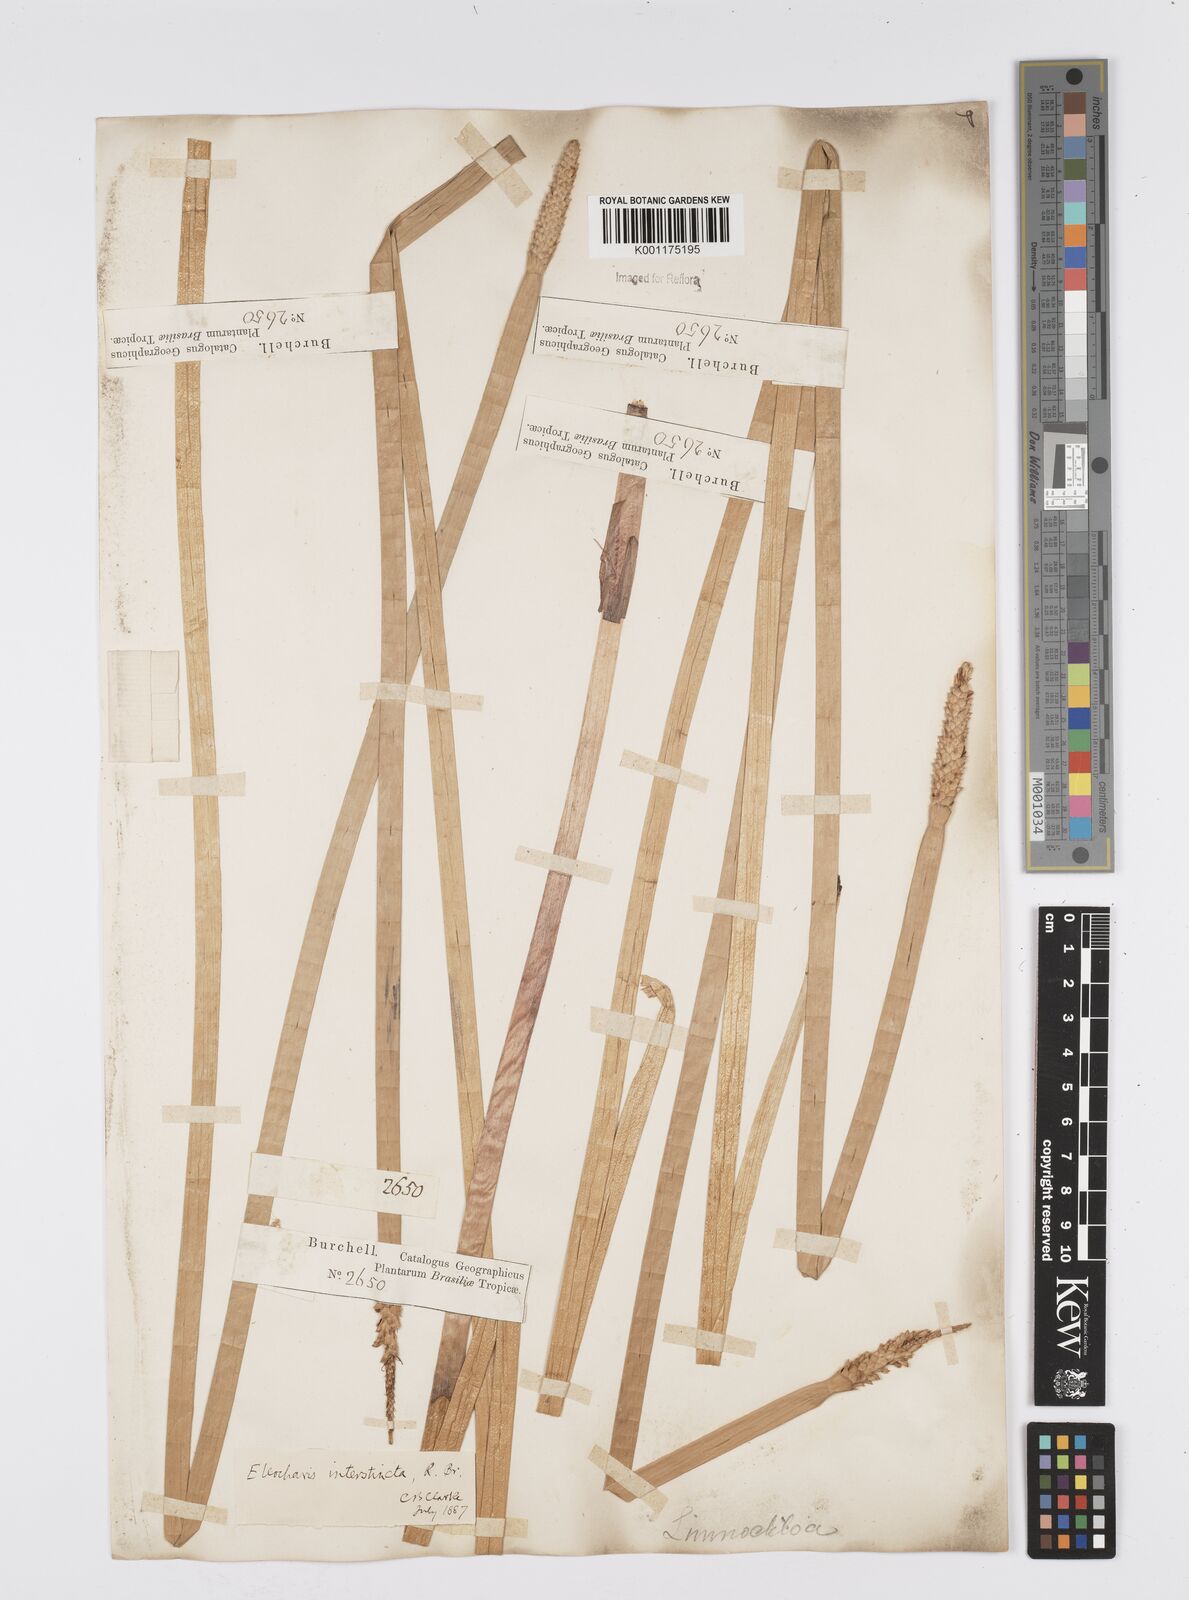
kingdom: Plantae
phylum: Tracheophyta
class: Liliopsida
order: Poales
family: Cyperaceae
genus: Eleocharis
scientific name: Eleocharis interstincta
